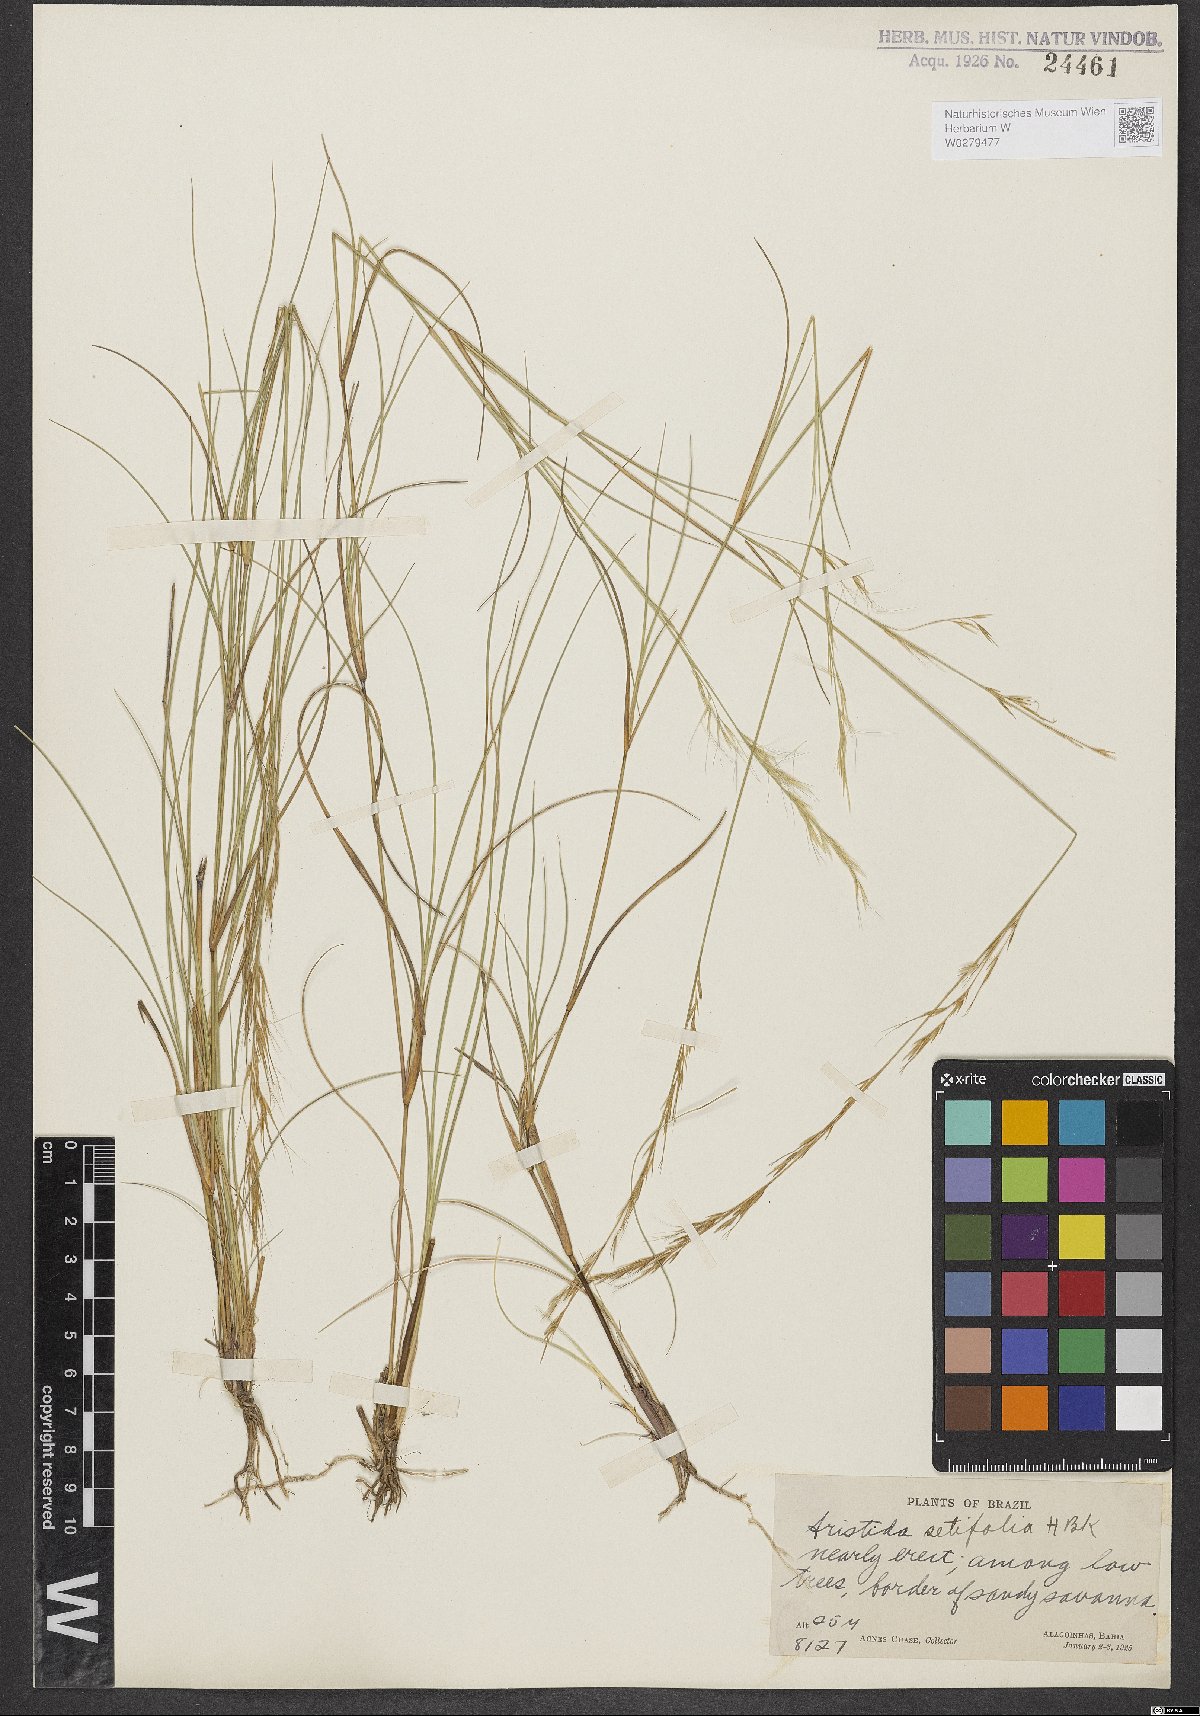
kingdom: Plantae
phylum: Tracheophyta
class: Liliopsida
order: Poales
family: Poaceae
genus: Aristida
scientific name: Aristida setifolia
